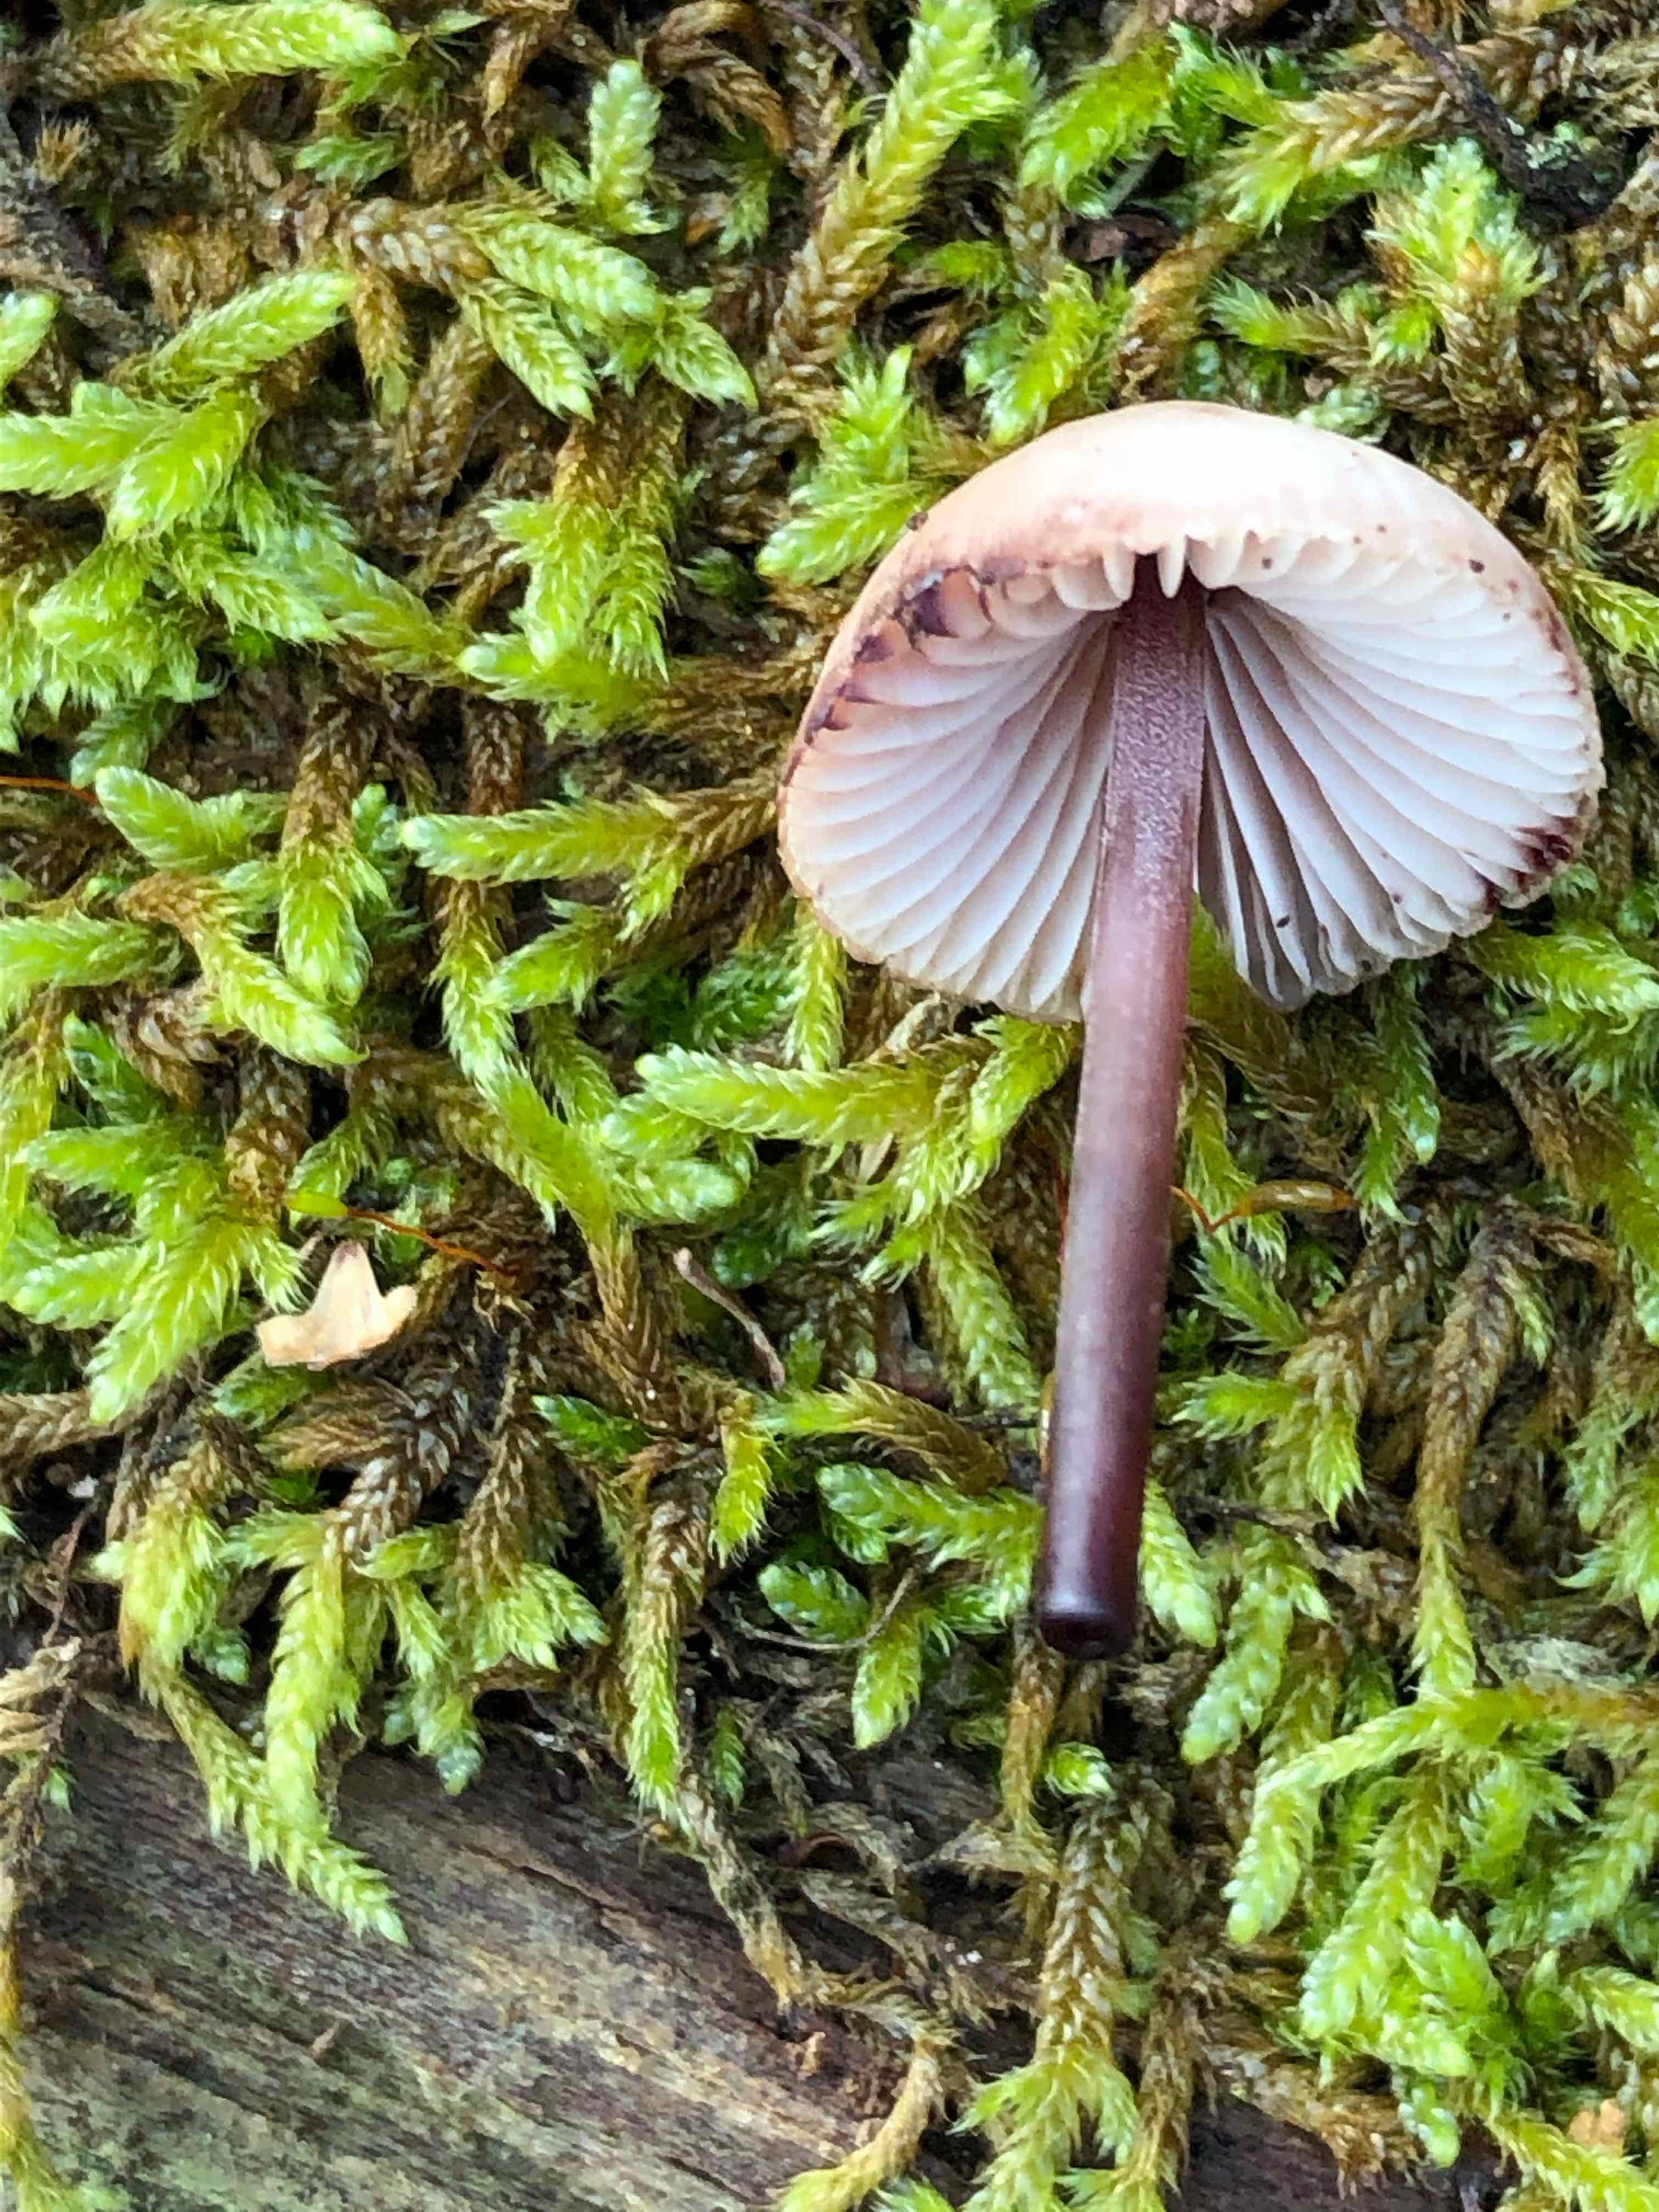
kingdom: Fungi
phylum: Basidiomycota
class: Agaricomycetes
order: Agaricales
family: Mycenaceae
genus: Mycena
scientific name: Mycena haematopus
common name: blødende huesvamp
